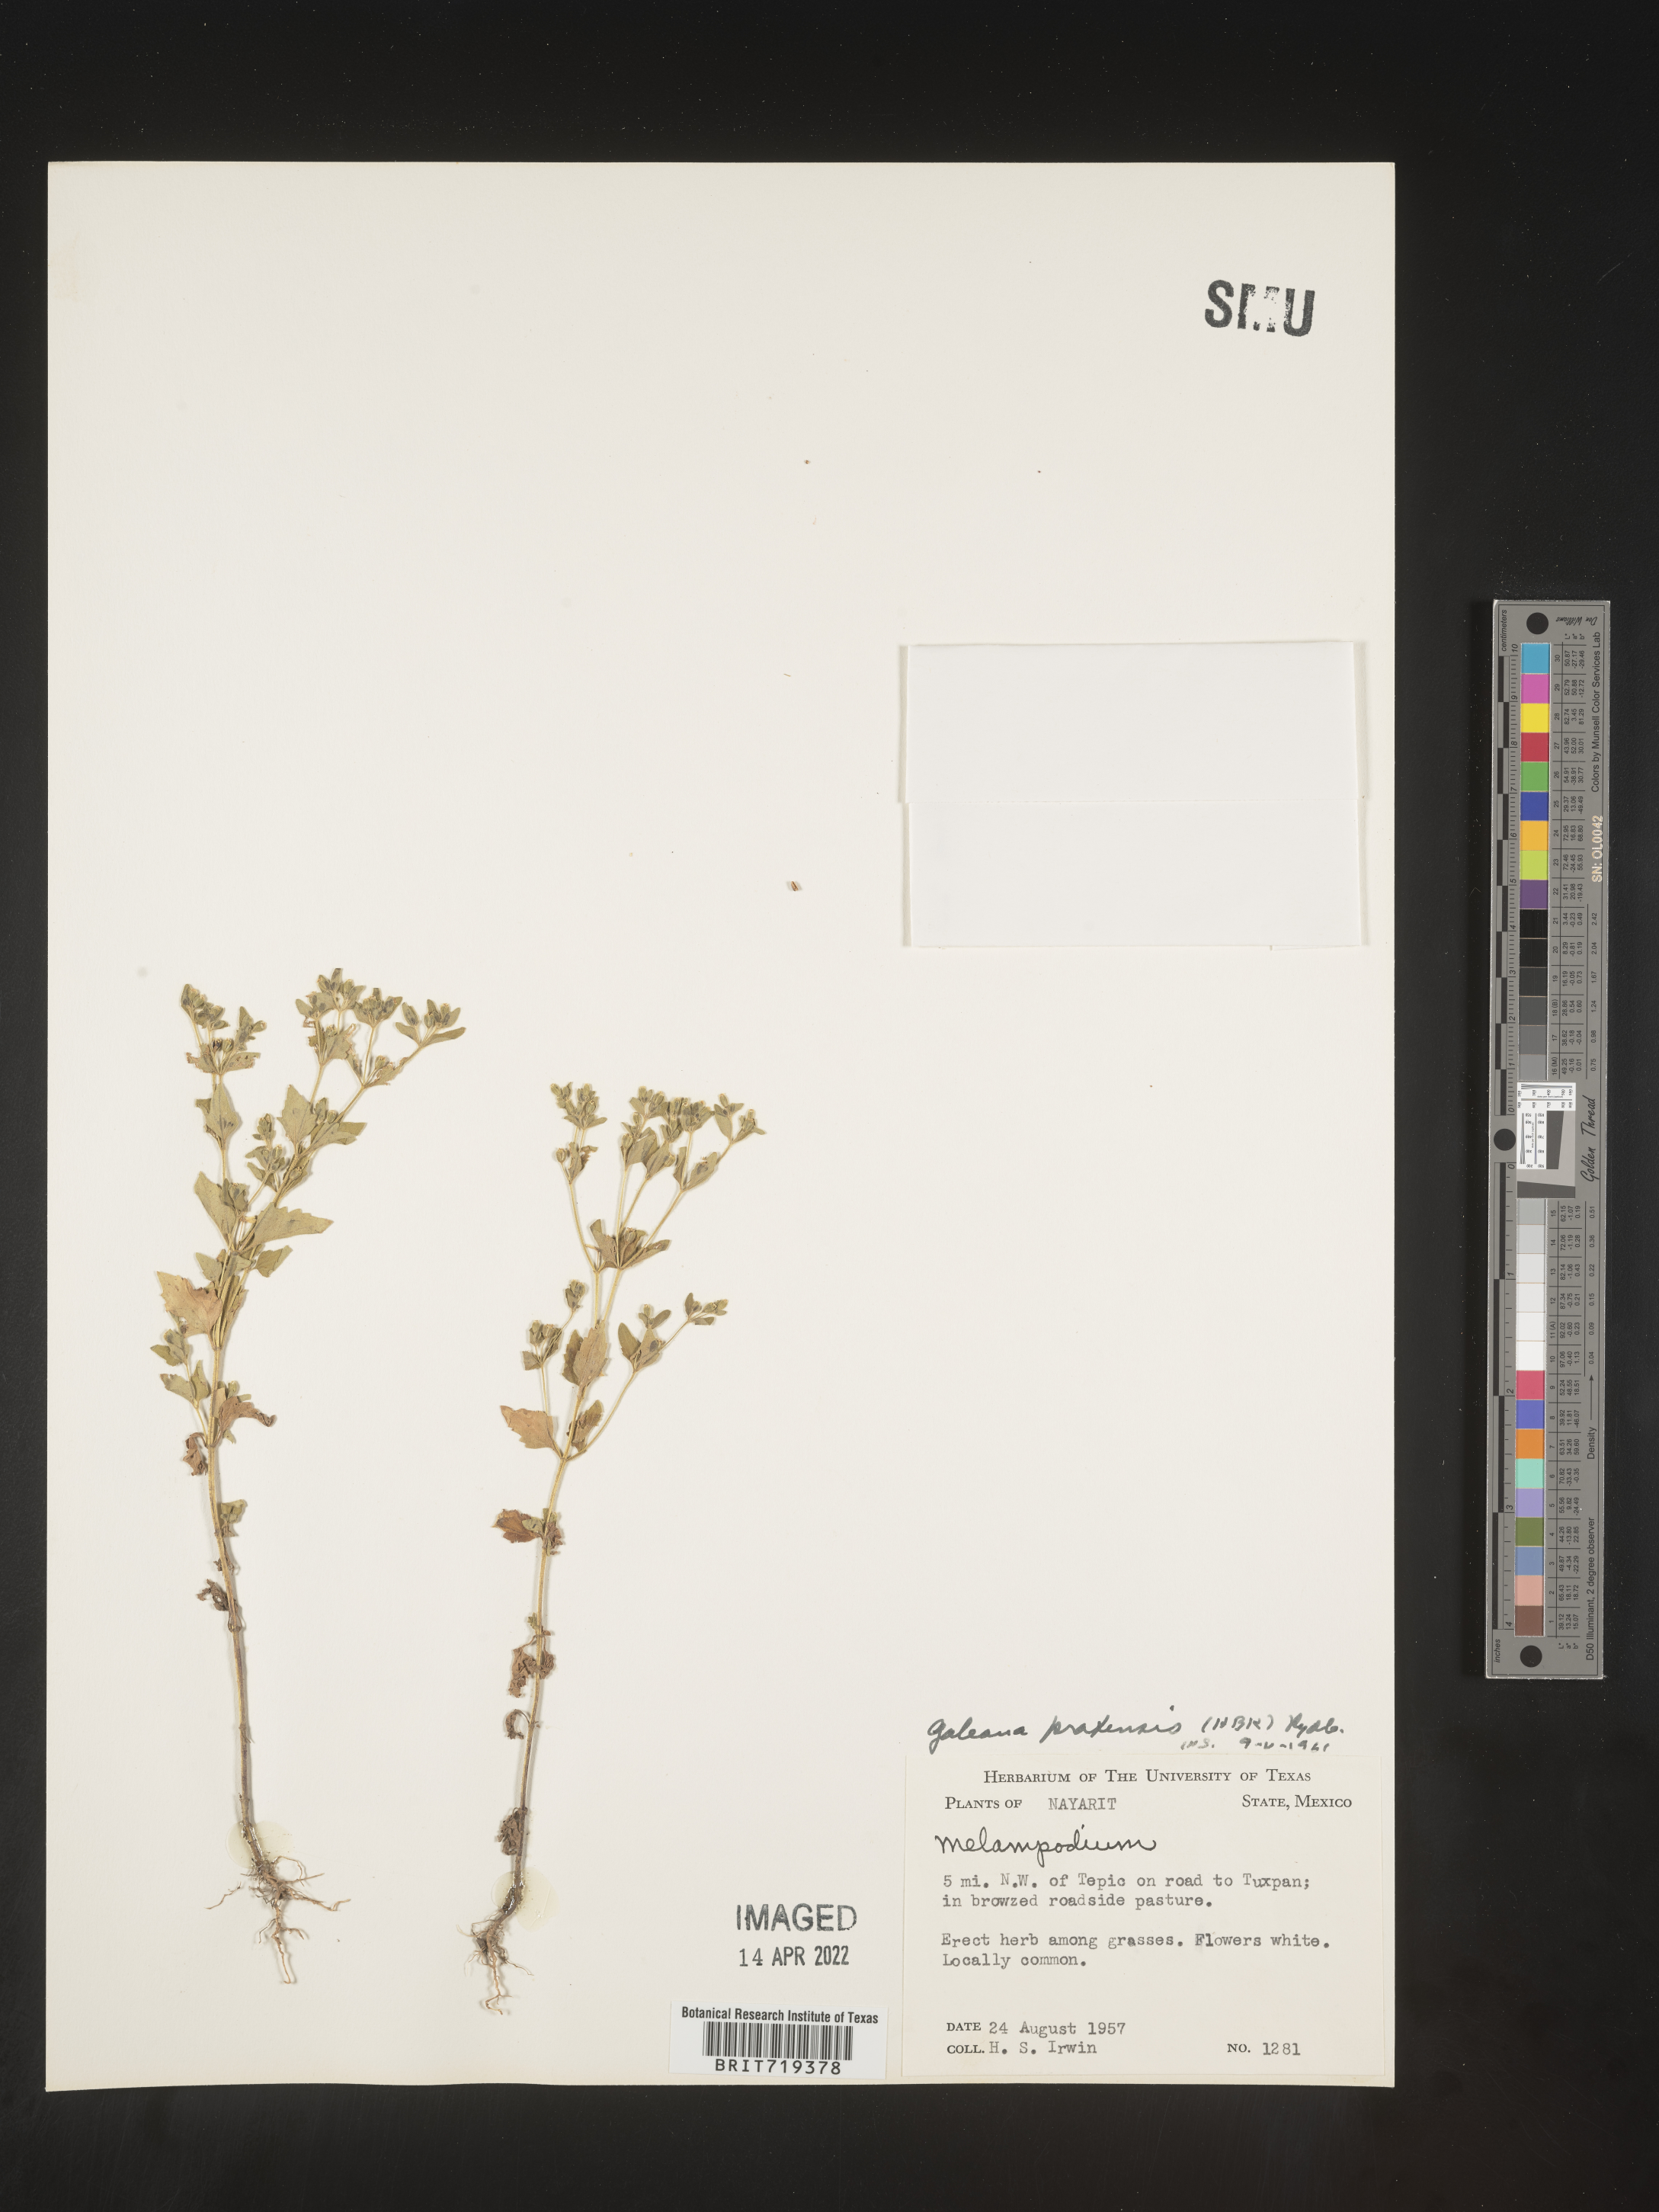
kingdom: Plantae
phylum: Tracheophyta
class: Magnoliopsida
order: Asterales
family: Asteraceae
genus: Galeana
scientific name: Galeana
